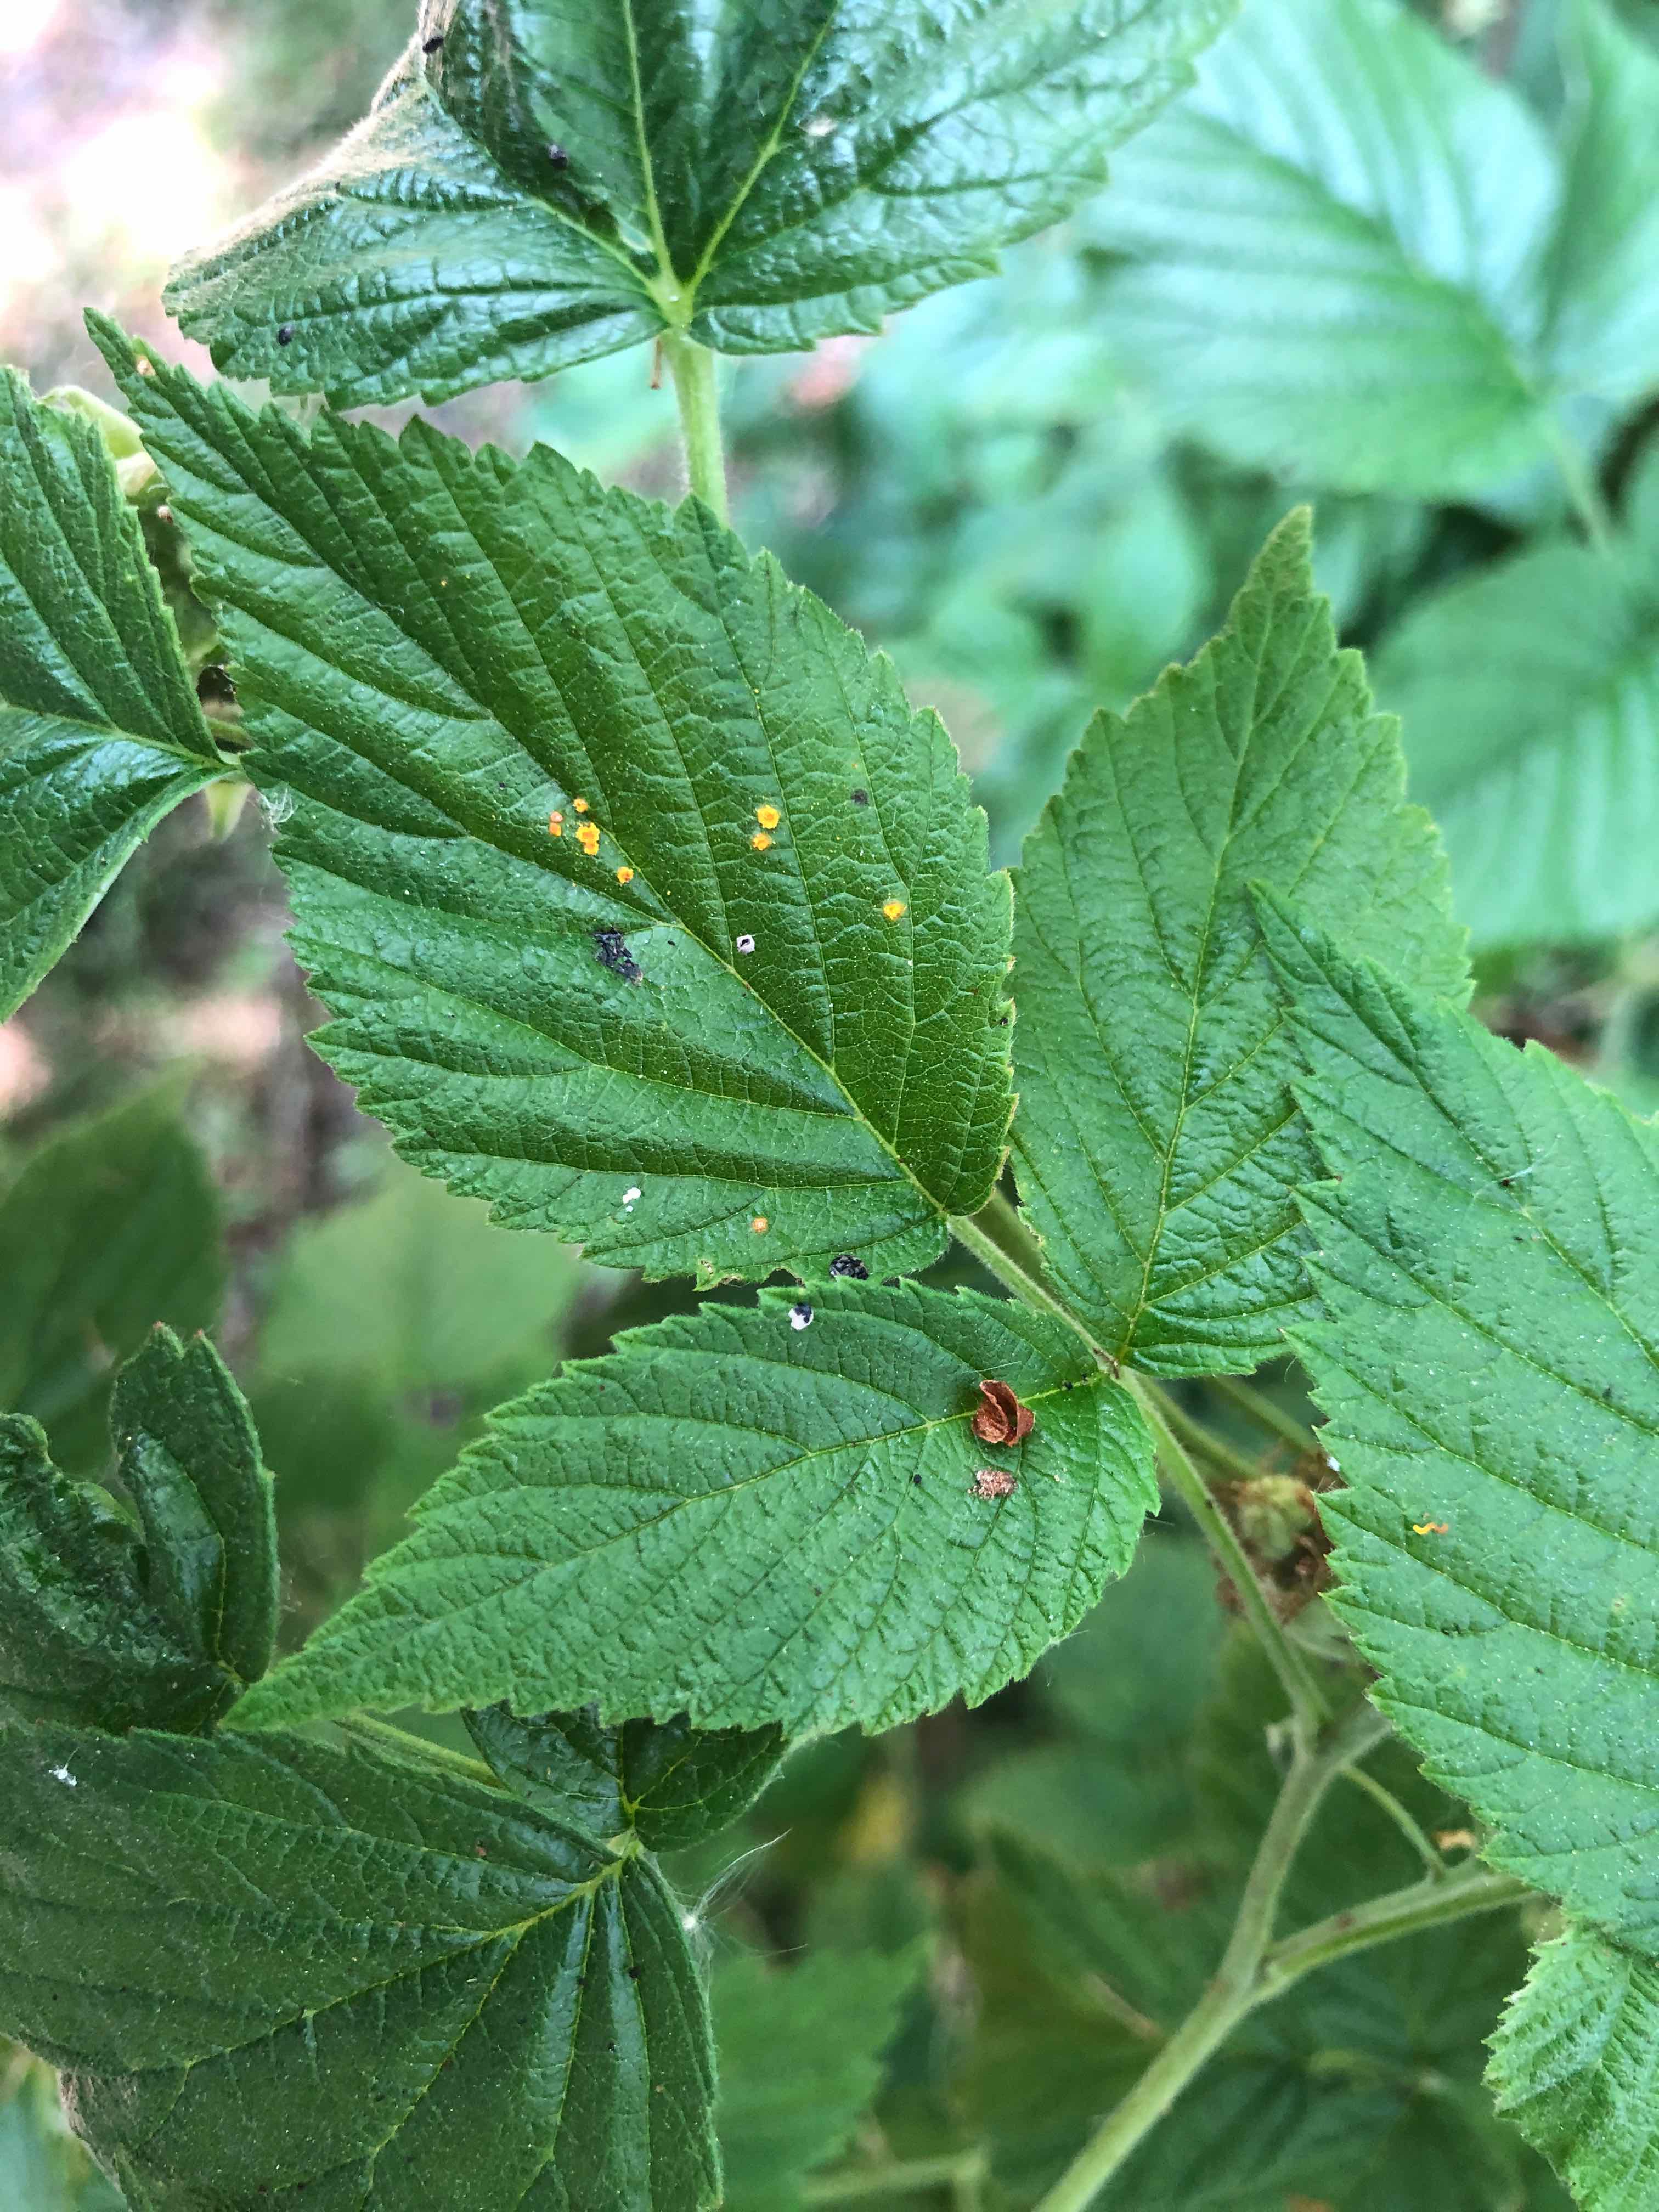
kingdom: Fungi
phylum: Basidiomycota
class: Pucciniomycetes
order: Pucciniales
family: Phragmidiaceae
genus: Phragmidium
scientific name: Phragmidium rubi-idaei
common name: hindbær-flercellerust
